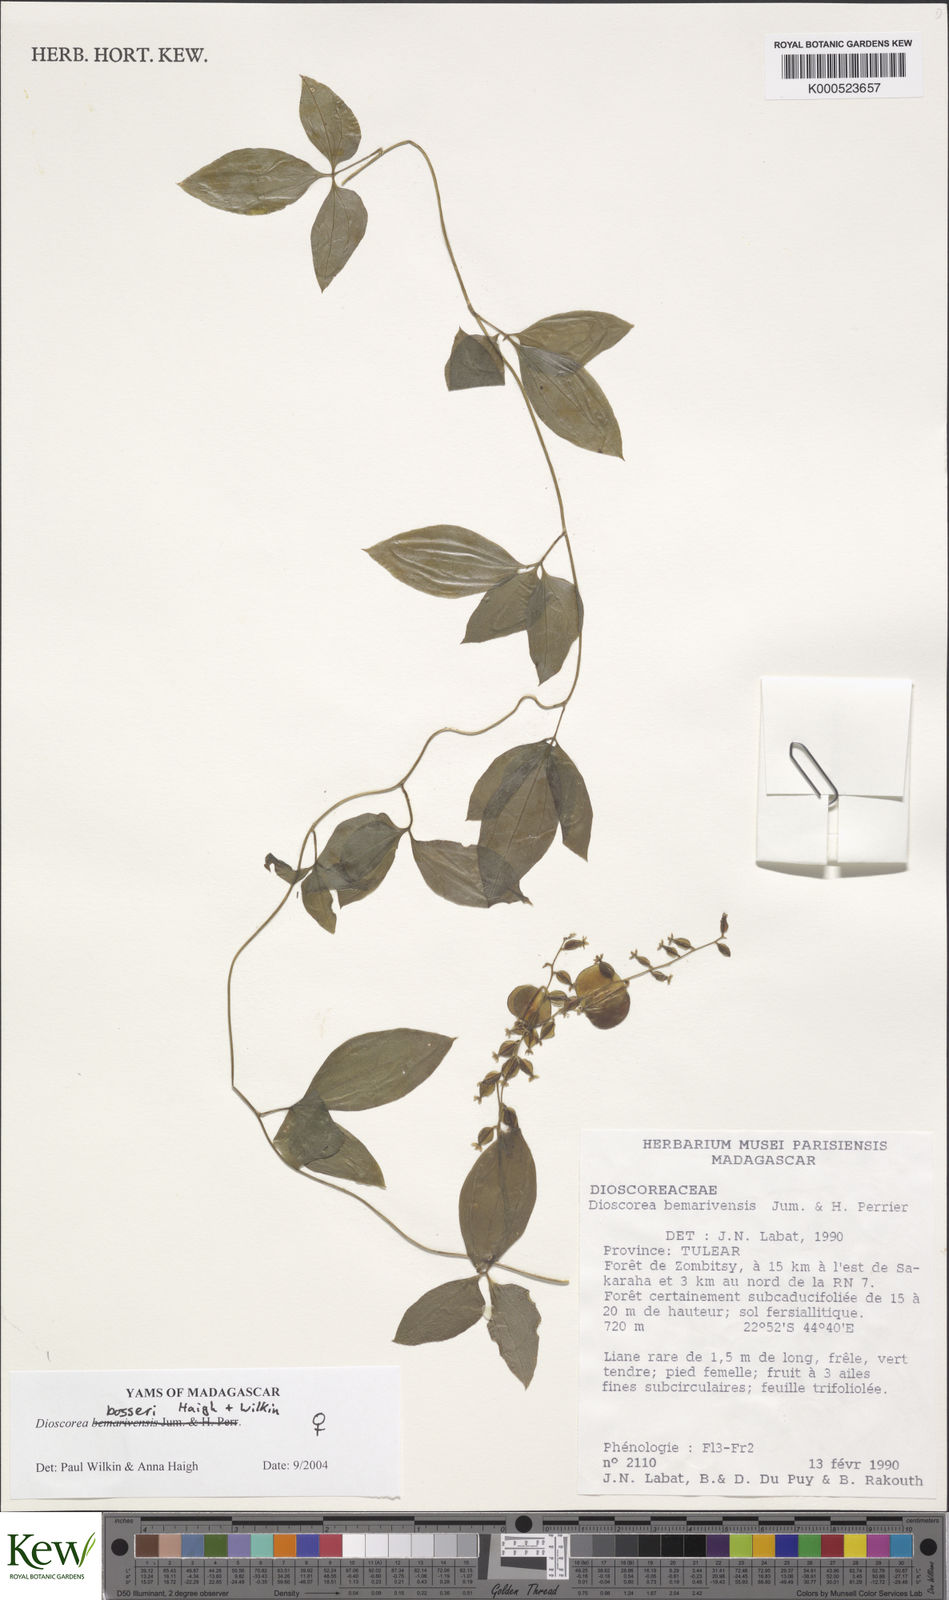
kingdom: Plantae
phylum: Tracheophyta
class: Liliopsida
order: Dioscoreales
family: Dioscoreaceae
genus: Dioscorea
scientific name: Dioscorea bosseri
